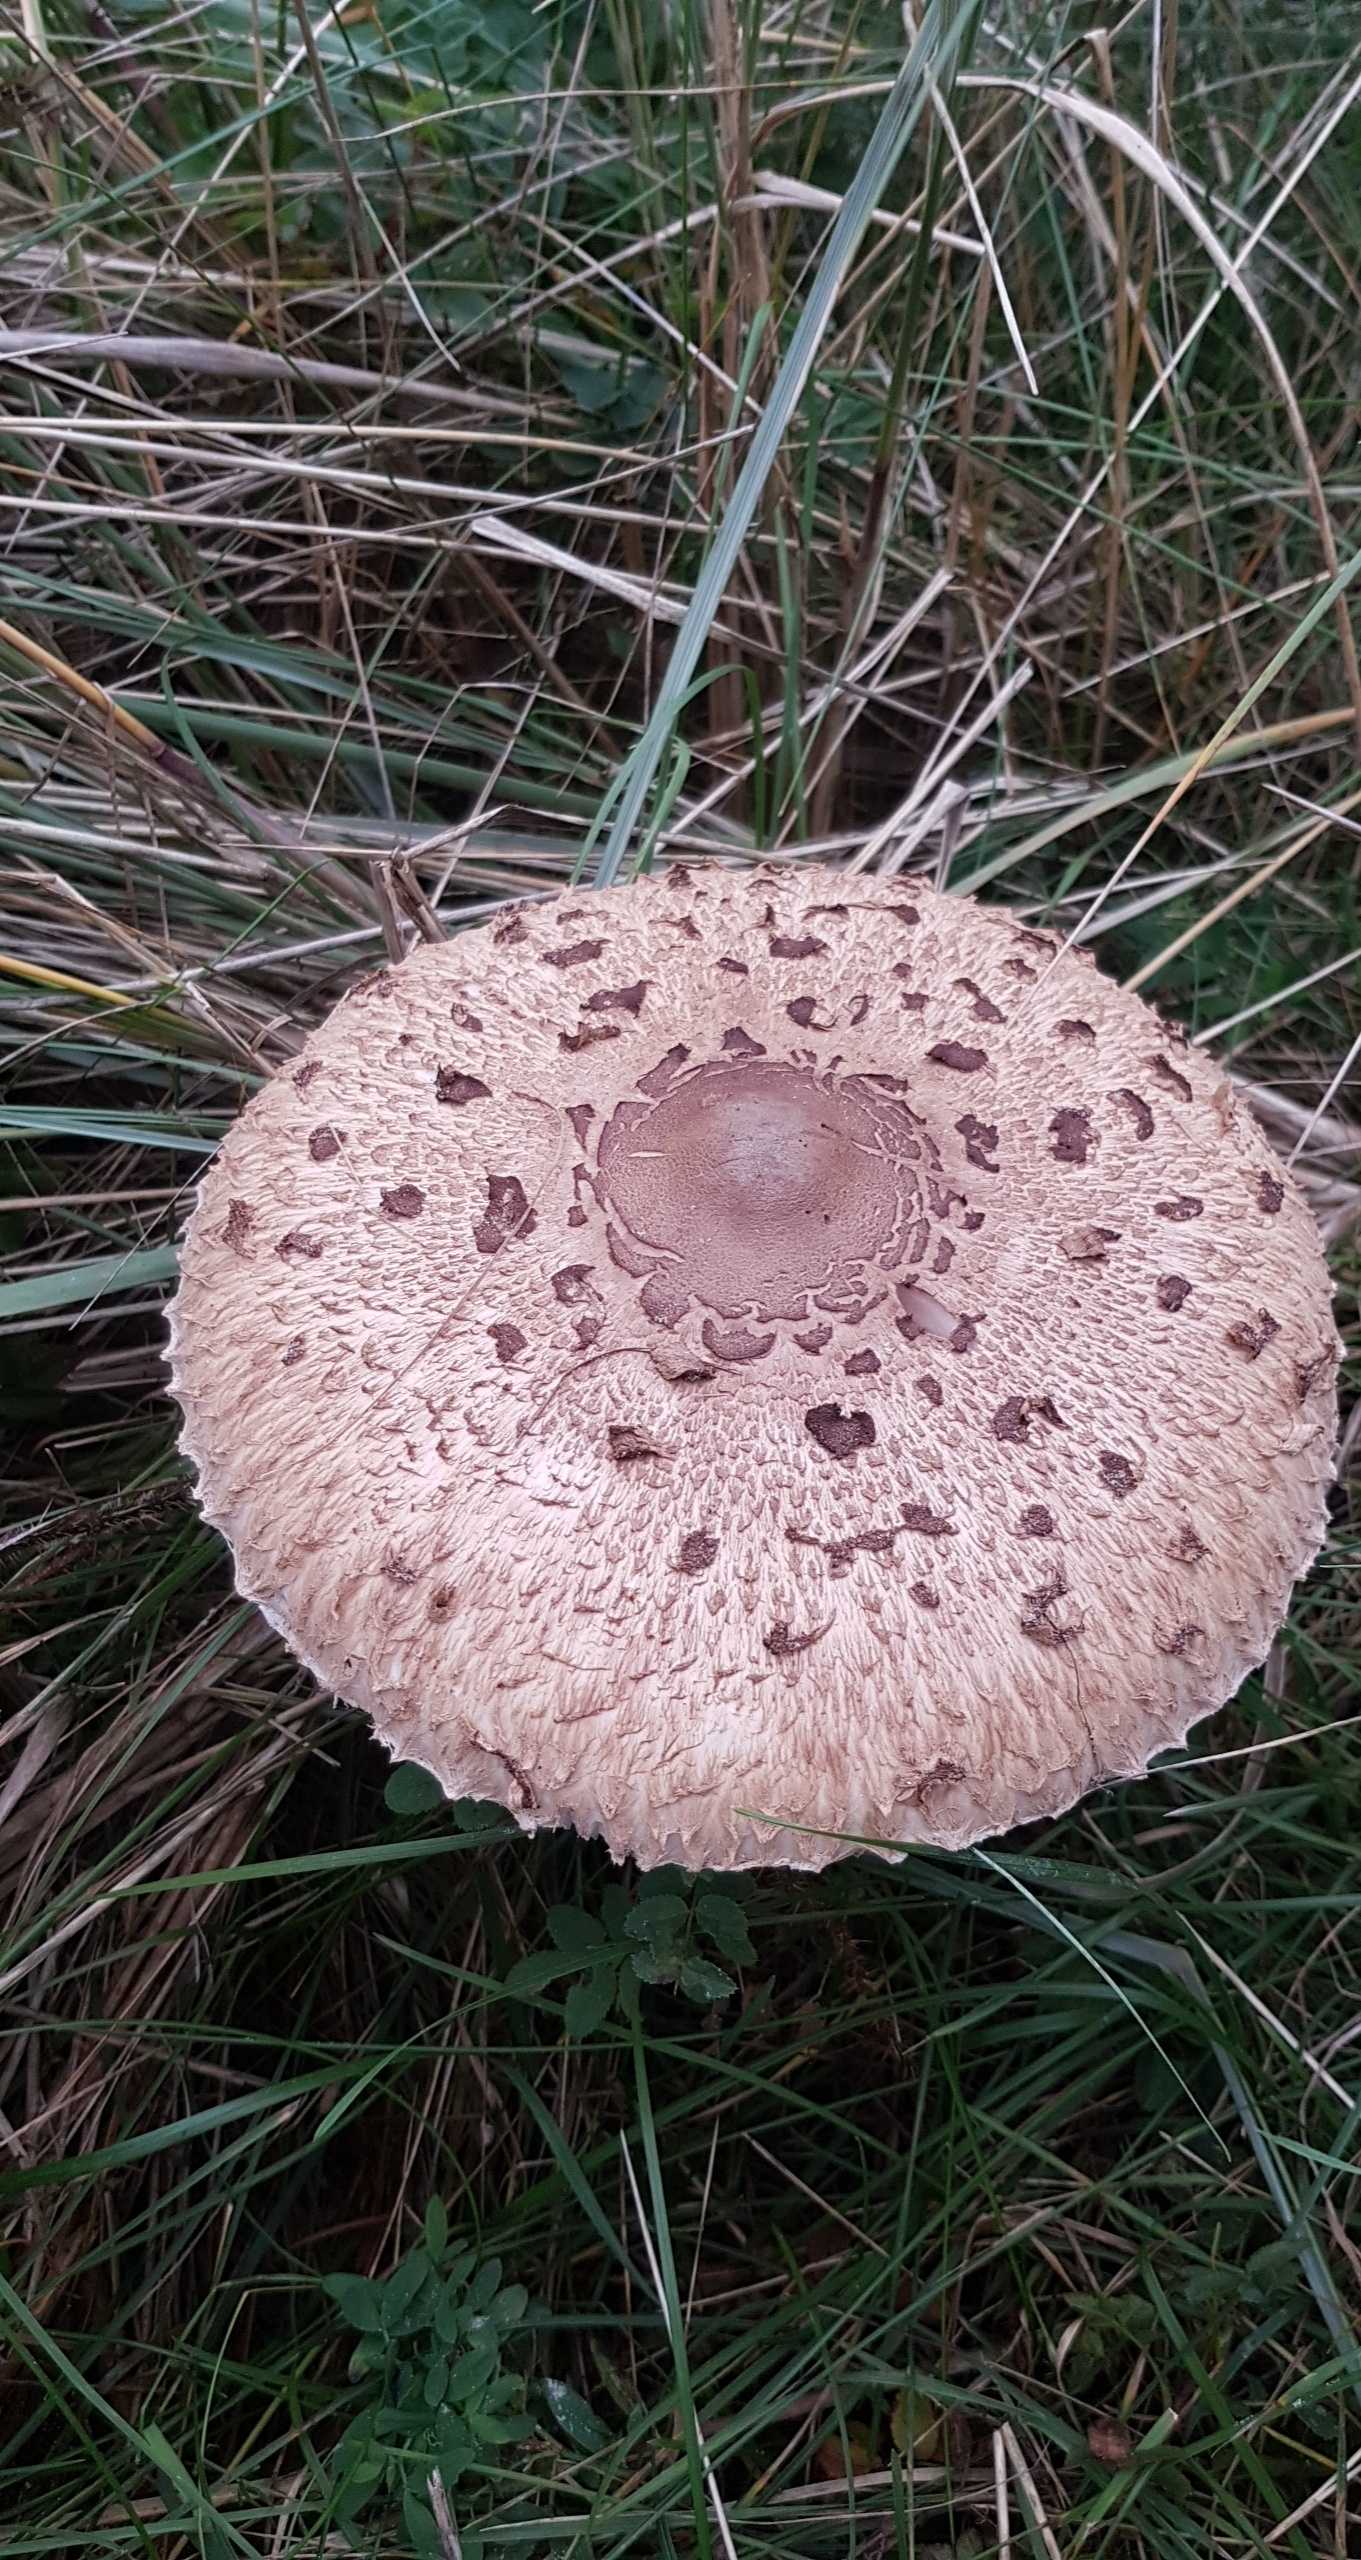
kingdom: Fungi
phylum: Basidiomycota
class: Agaricomycetes
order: Agaricales
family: Agaricaceae
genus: Macrolepiota
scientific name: Macrolepiota procera
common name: stor kæmpeparasolhat
